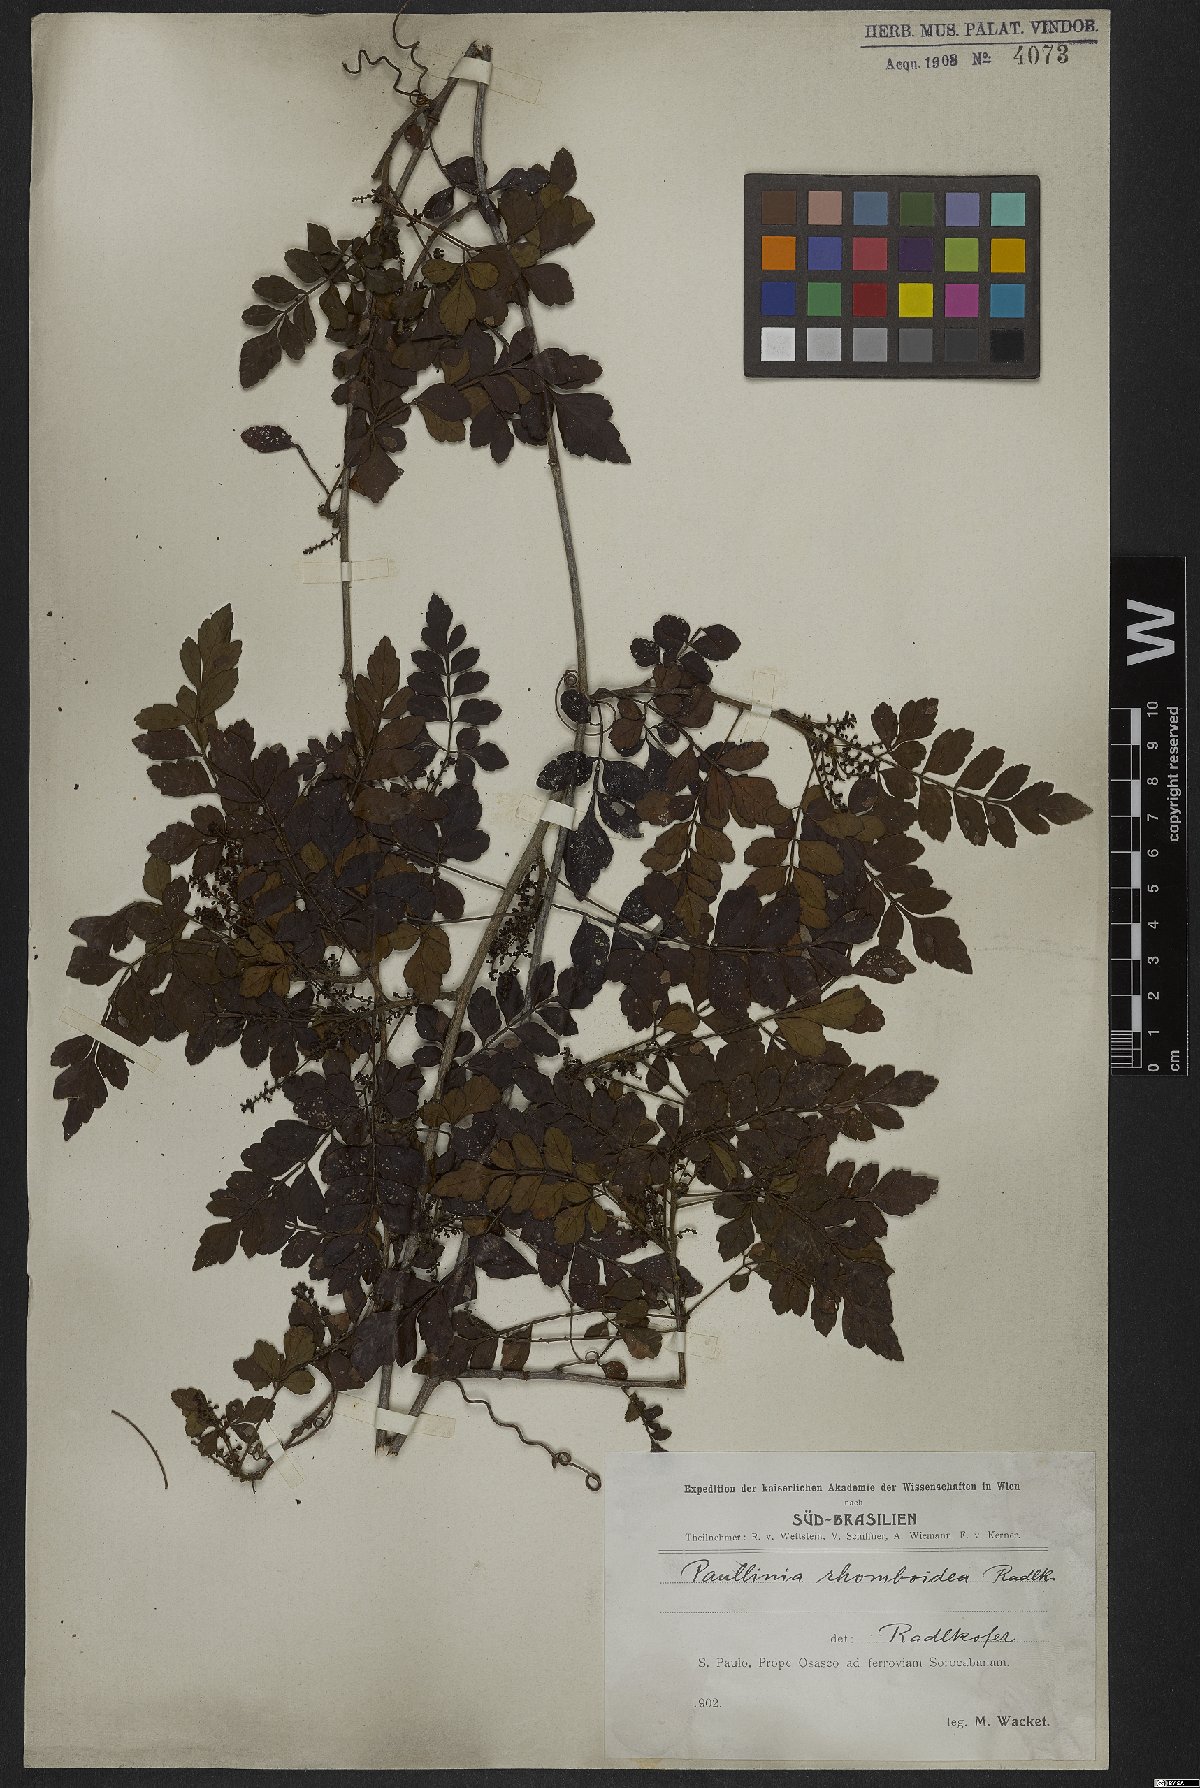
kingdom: Plantae
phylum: Tracheophyta
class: Magnoliopsida
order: Sapindales
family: Sapindaceae
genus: Paullinia
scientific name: Paullinia rhomboidea
